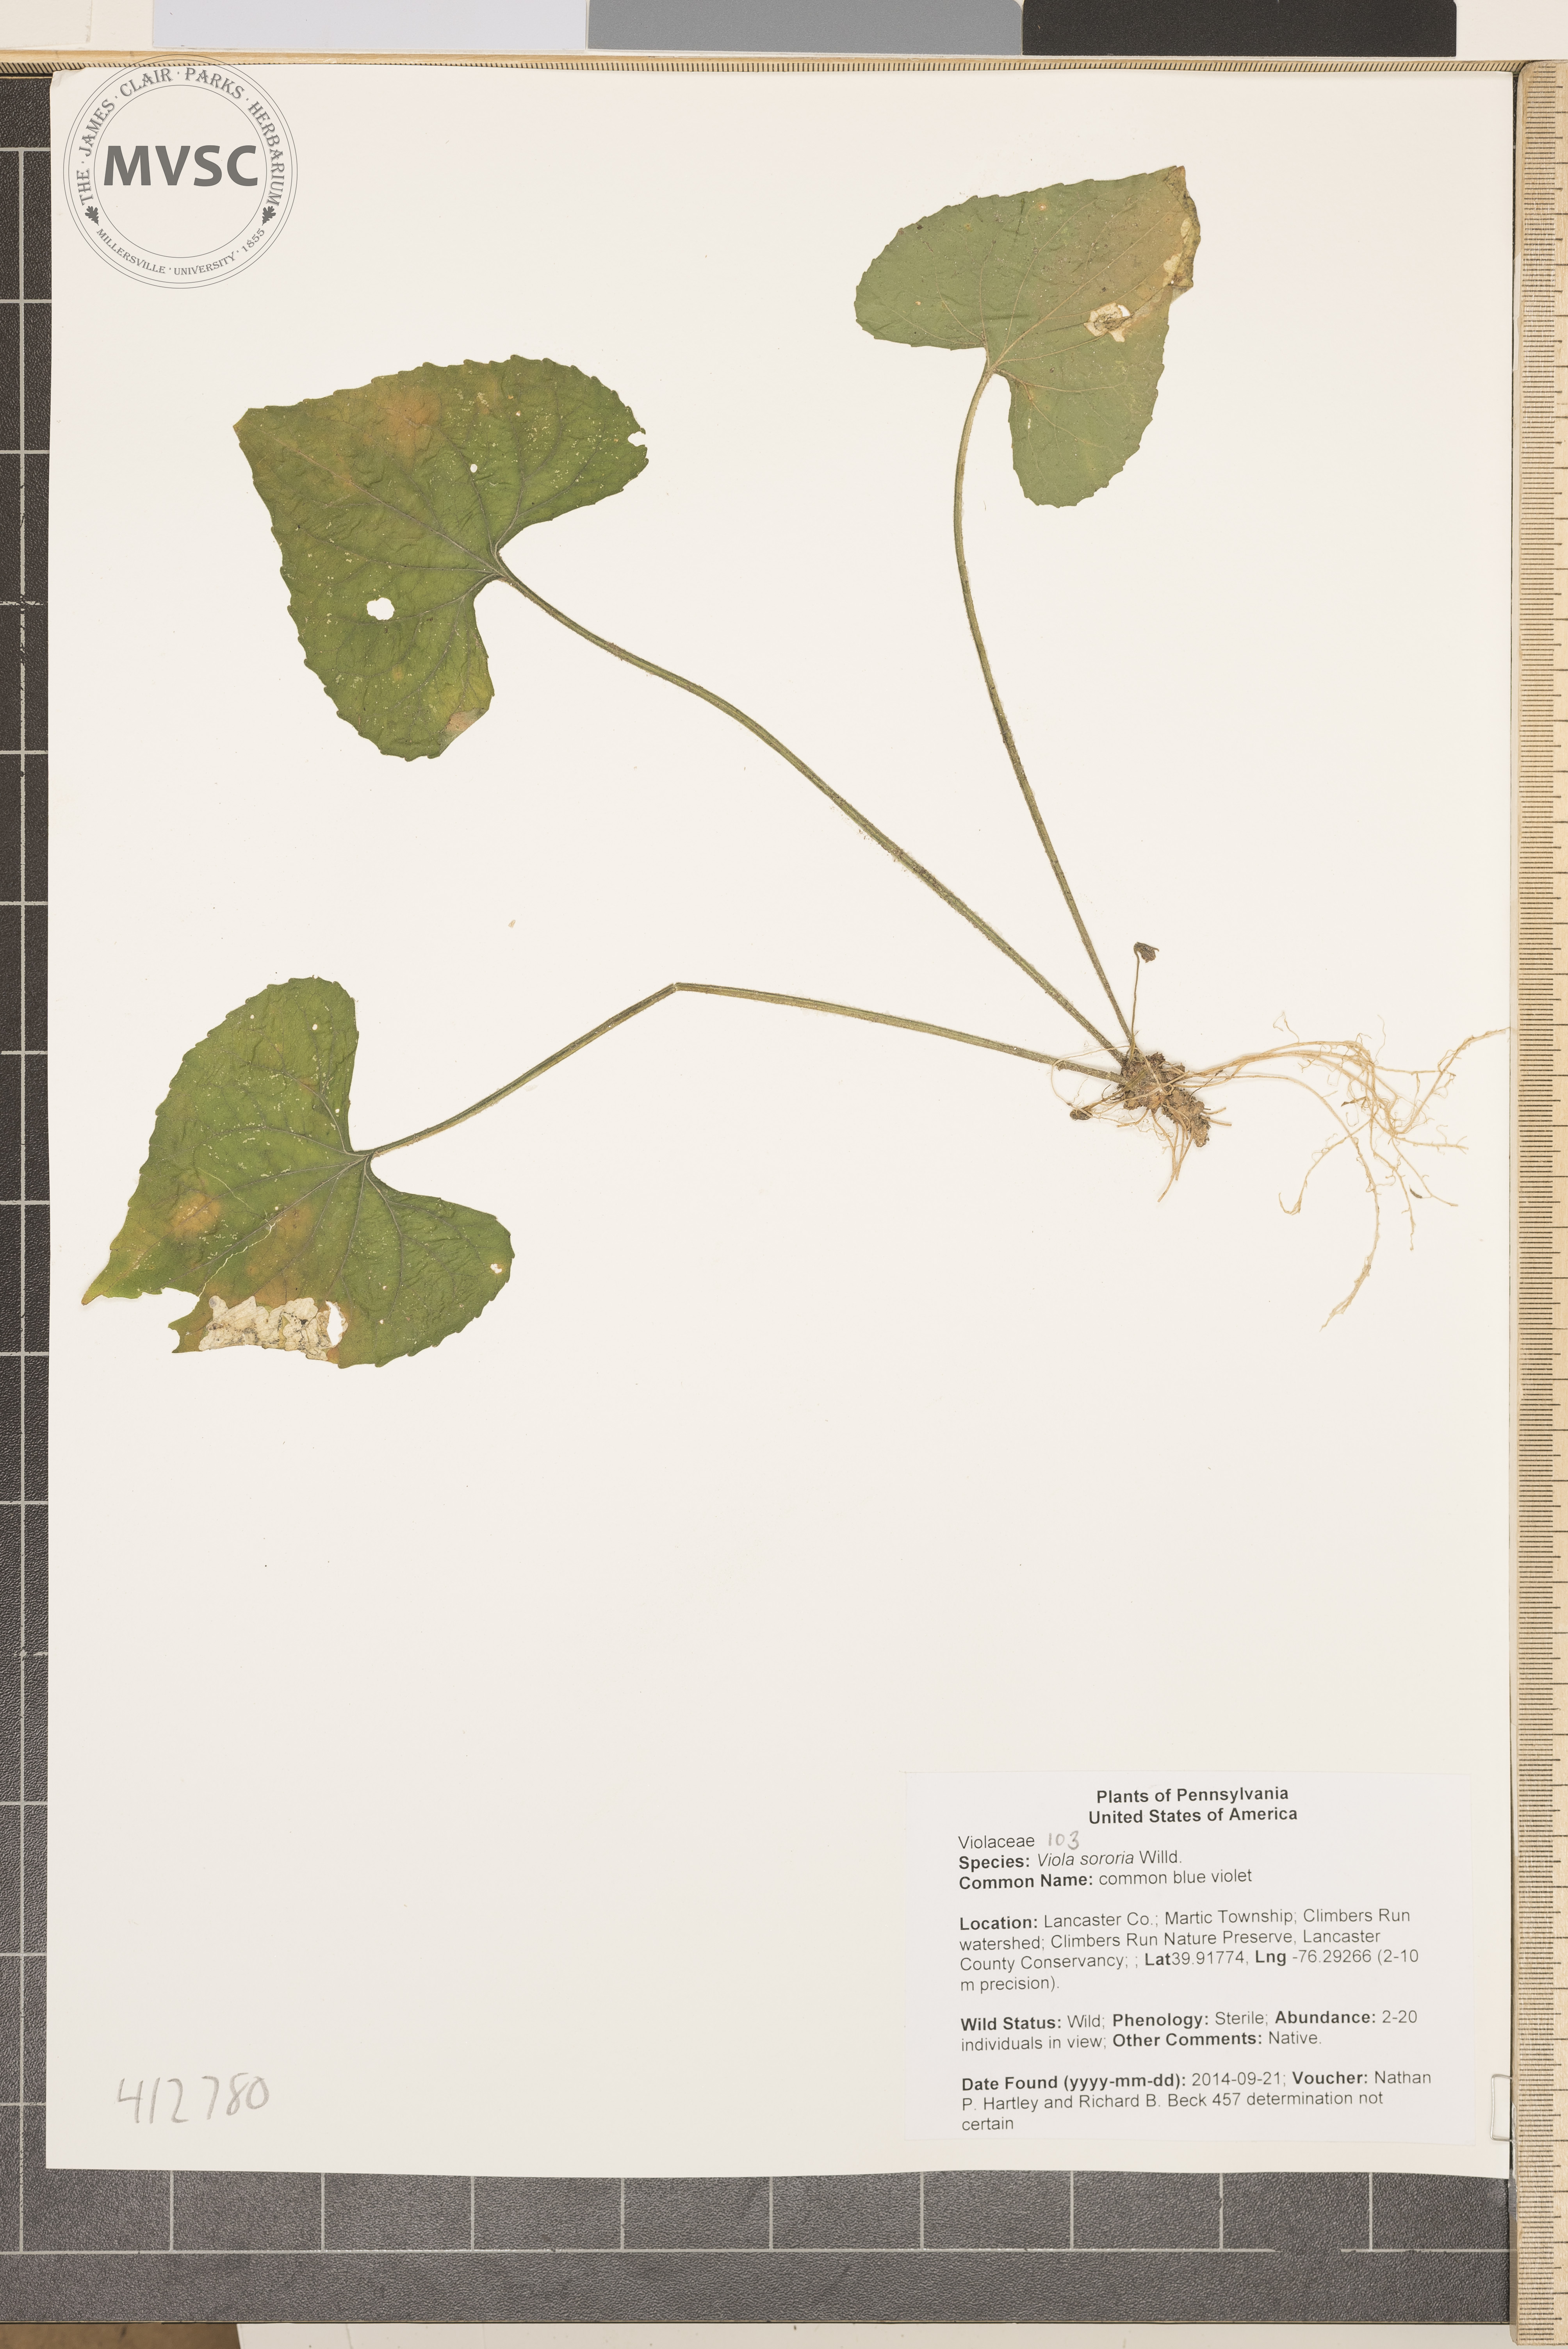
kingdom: Plantae
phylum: Tracheophyta
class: Magnoliopsida
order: Malpighiales
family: Violaceae
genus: Viola
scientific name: Viola sororia
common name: common blue violet
